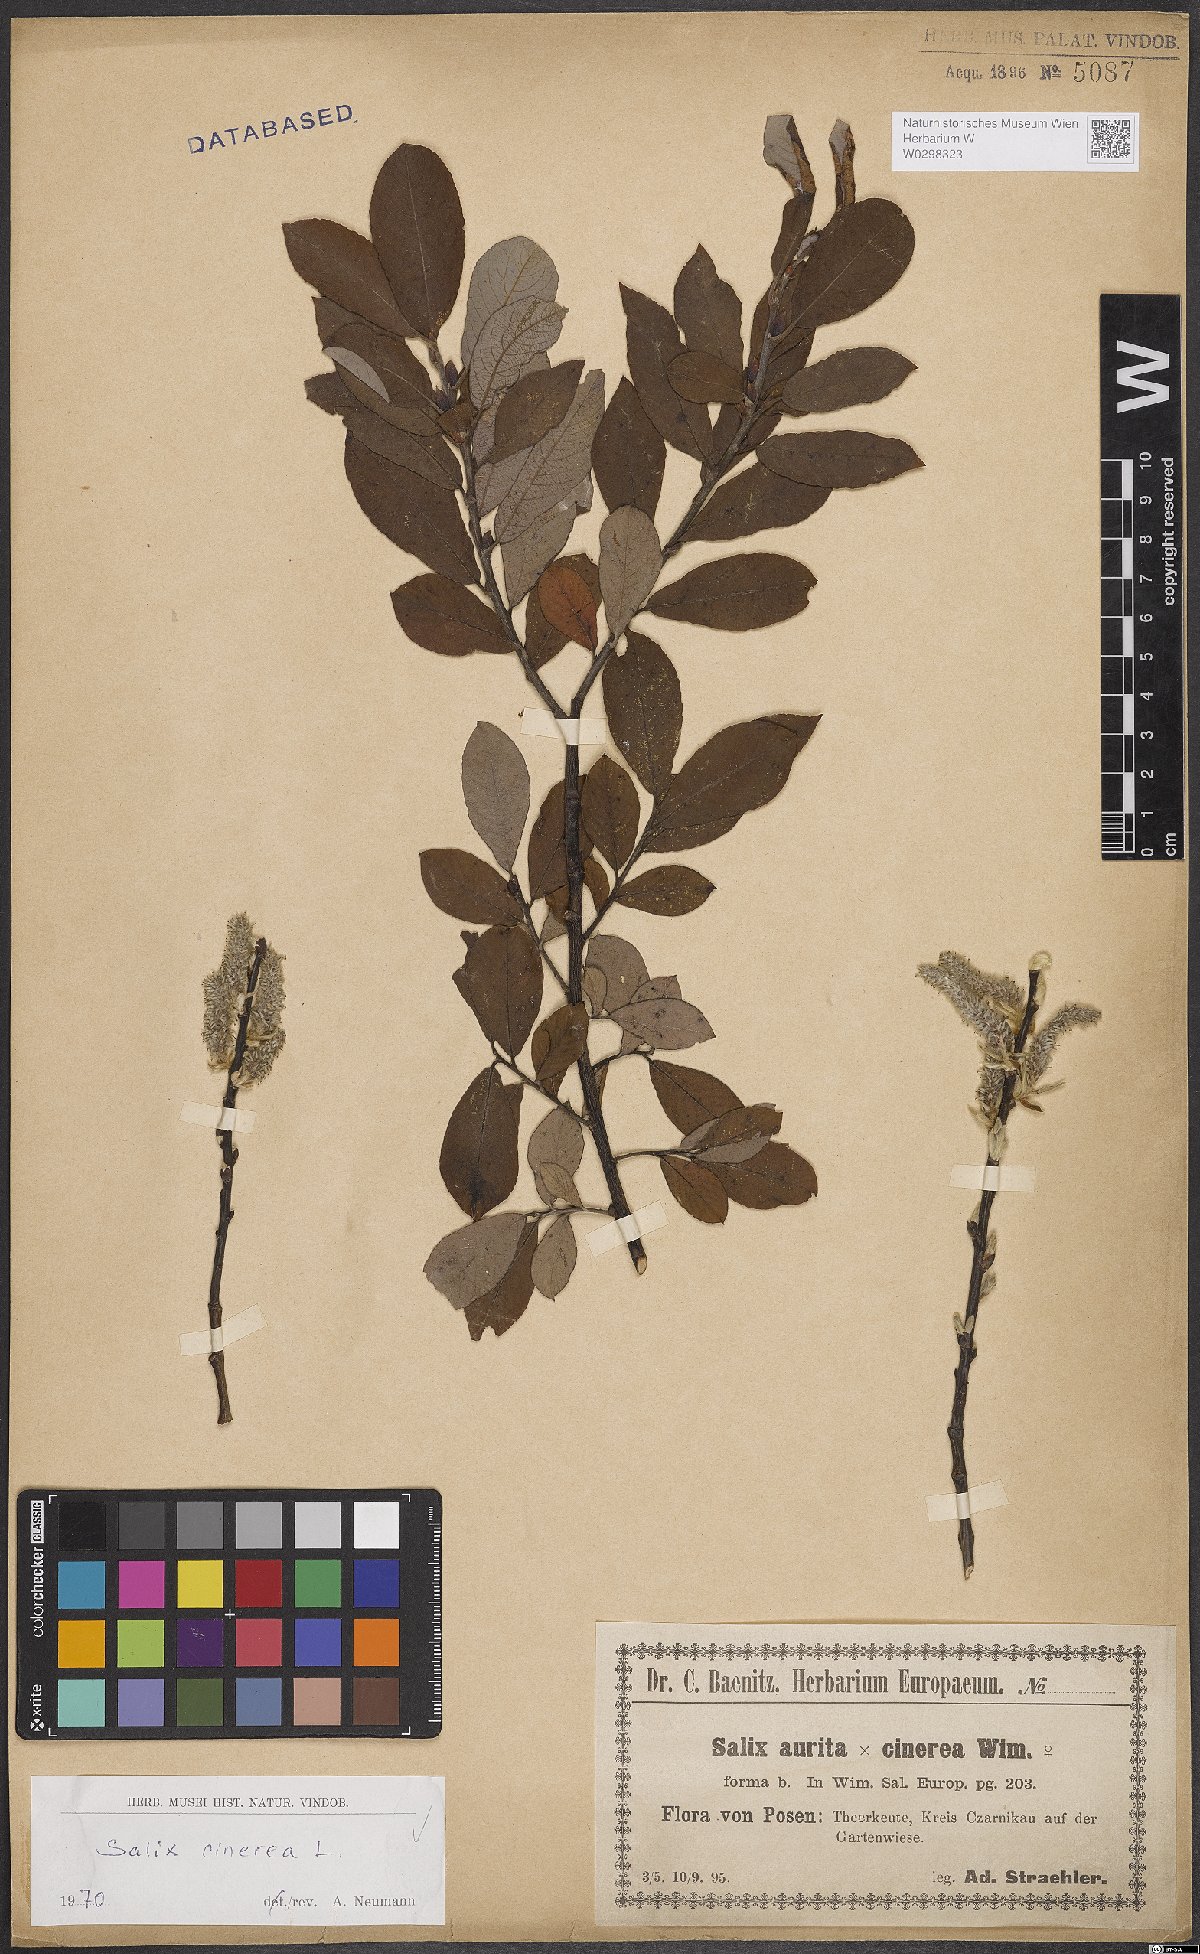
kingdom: Plantae
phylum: Tracheophyta
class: Magnoliopsida
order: Malpighiales
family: Salicaceae
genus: Salix
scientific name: Salix cinerea
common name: Common sallow
